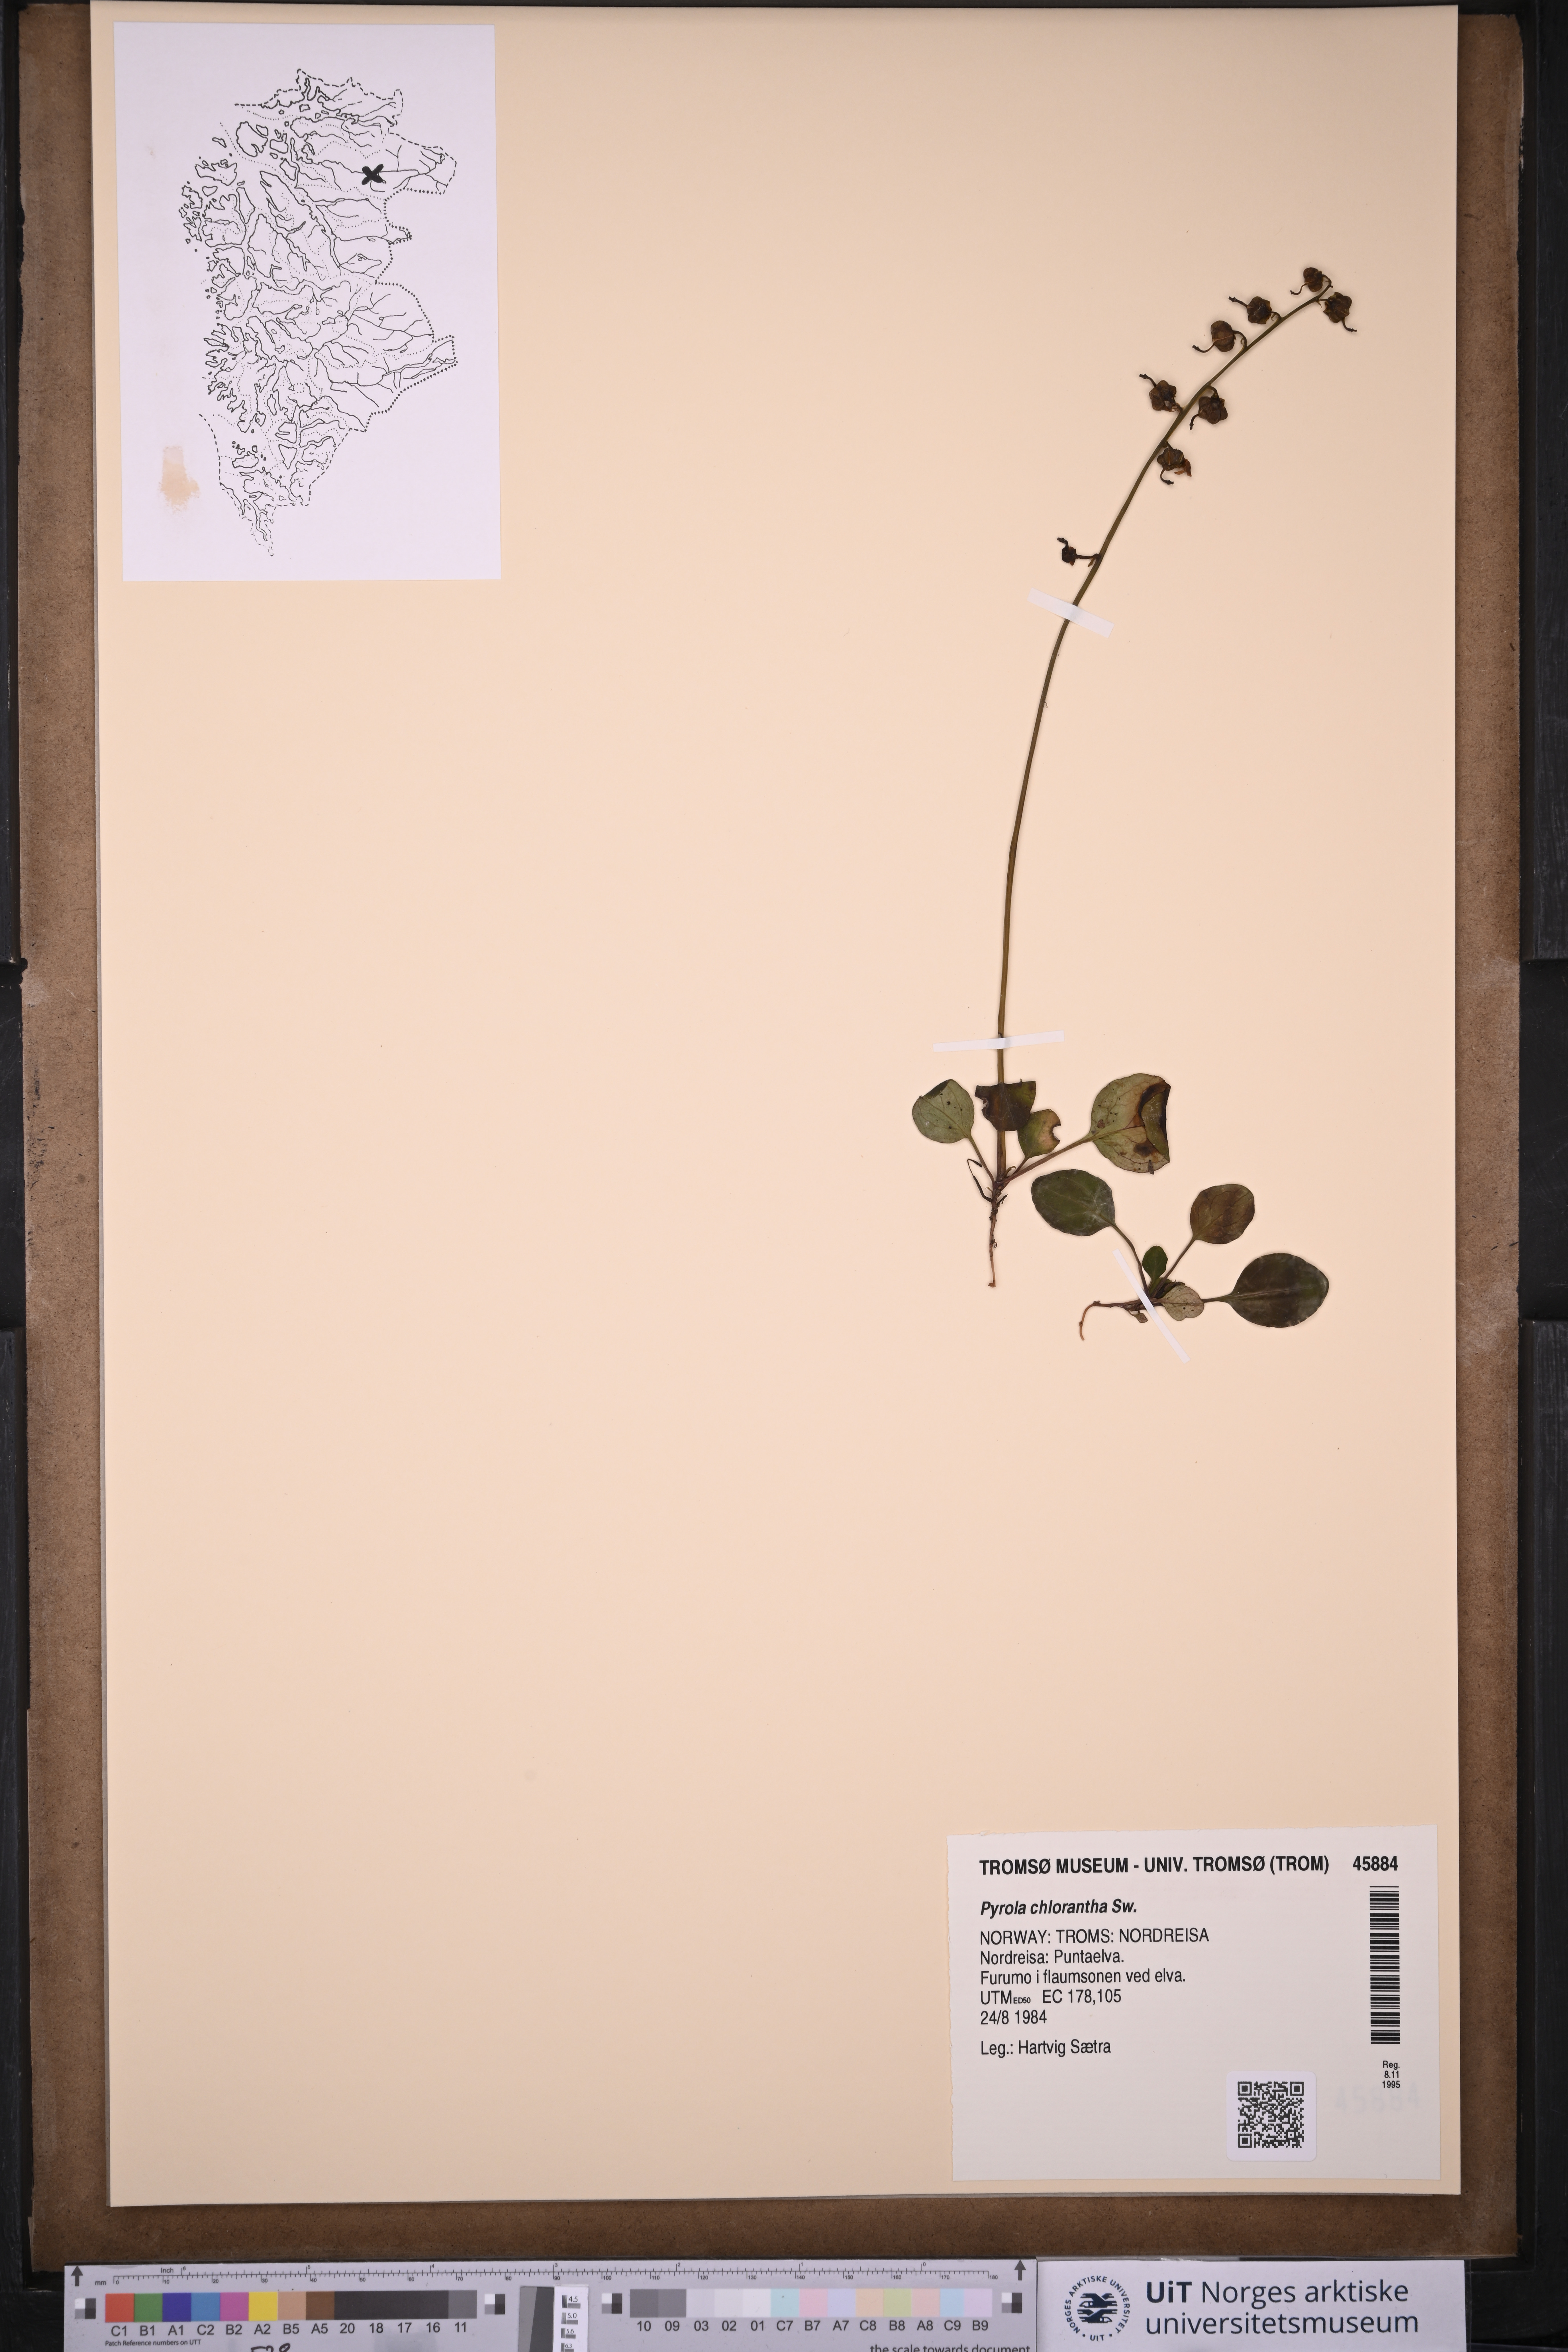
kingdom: Plantae
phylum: Tracheophyta
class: Magnoliopsida
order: Ericales
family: Ericaceae
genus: Pyrola
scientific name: Pyrola chlorantha
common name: Green wintergreen
